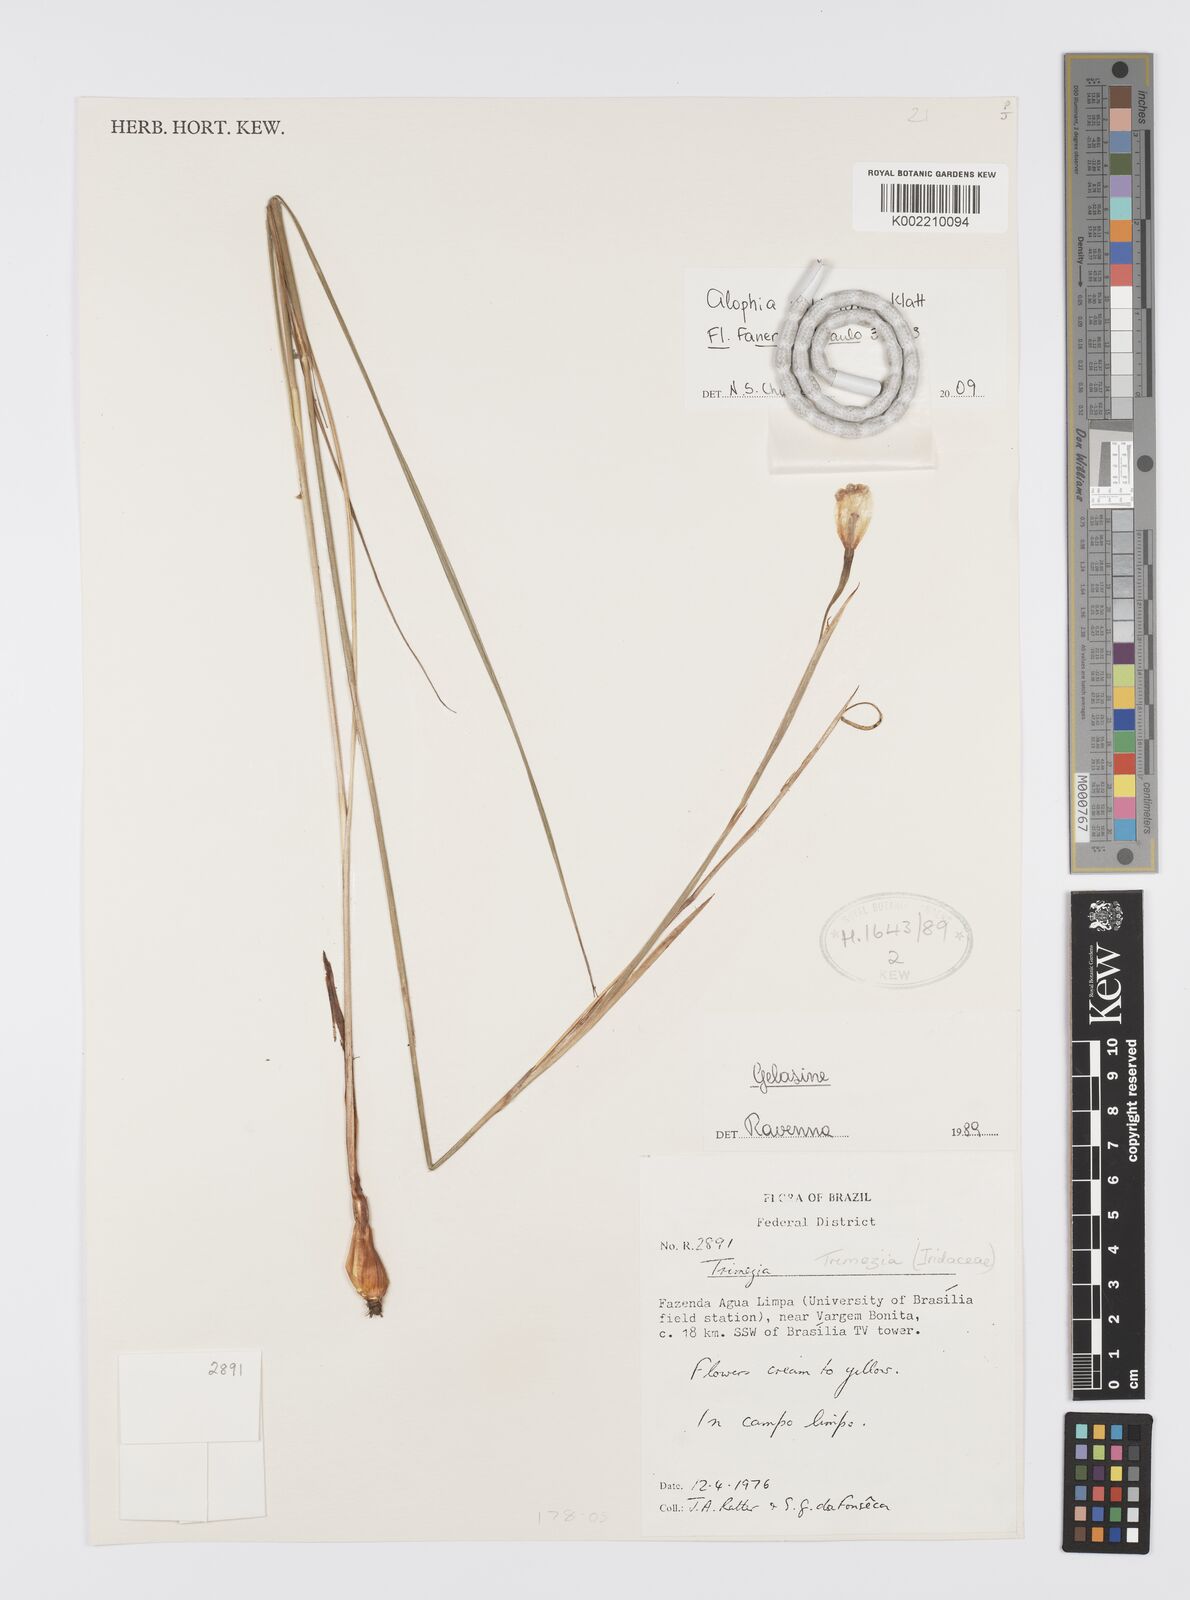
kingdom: Plantae
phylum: Tracheophyta
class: Liliopsida
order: Asparagales
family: Iridaceae
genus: Gelasine
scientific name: Gelasine coerulea
